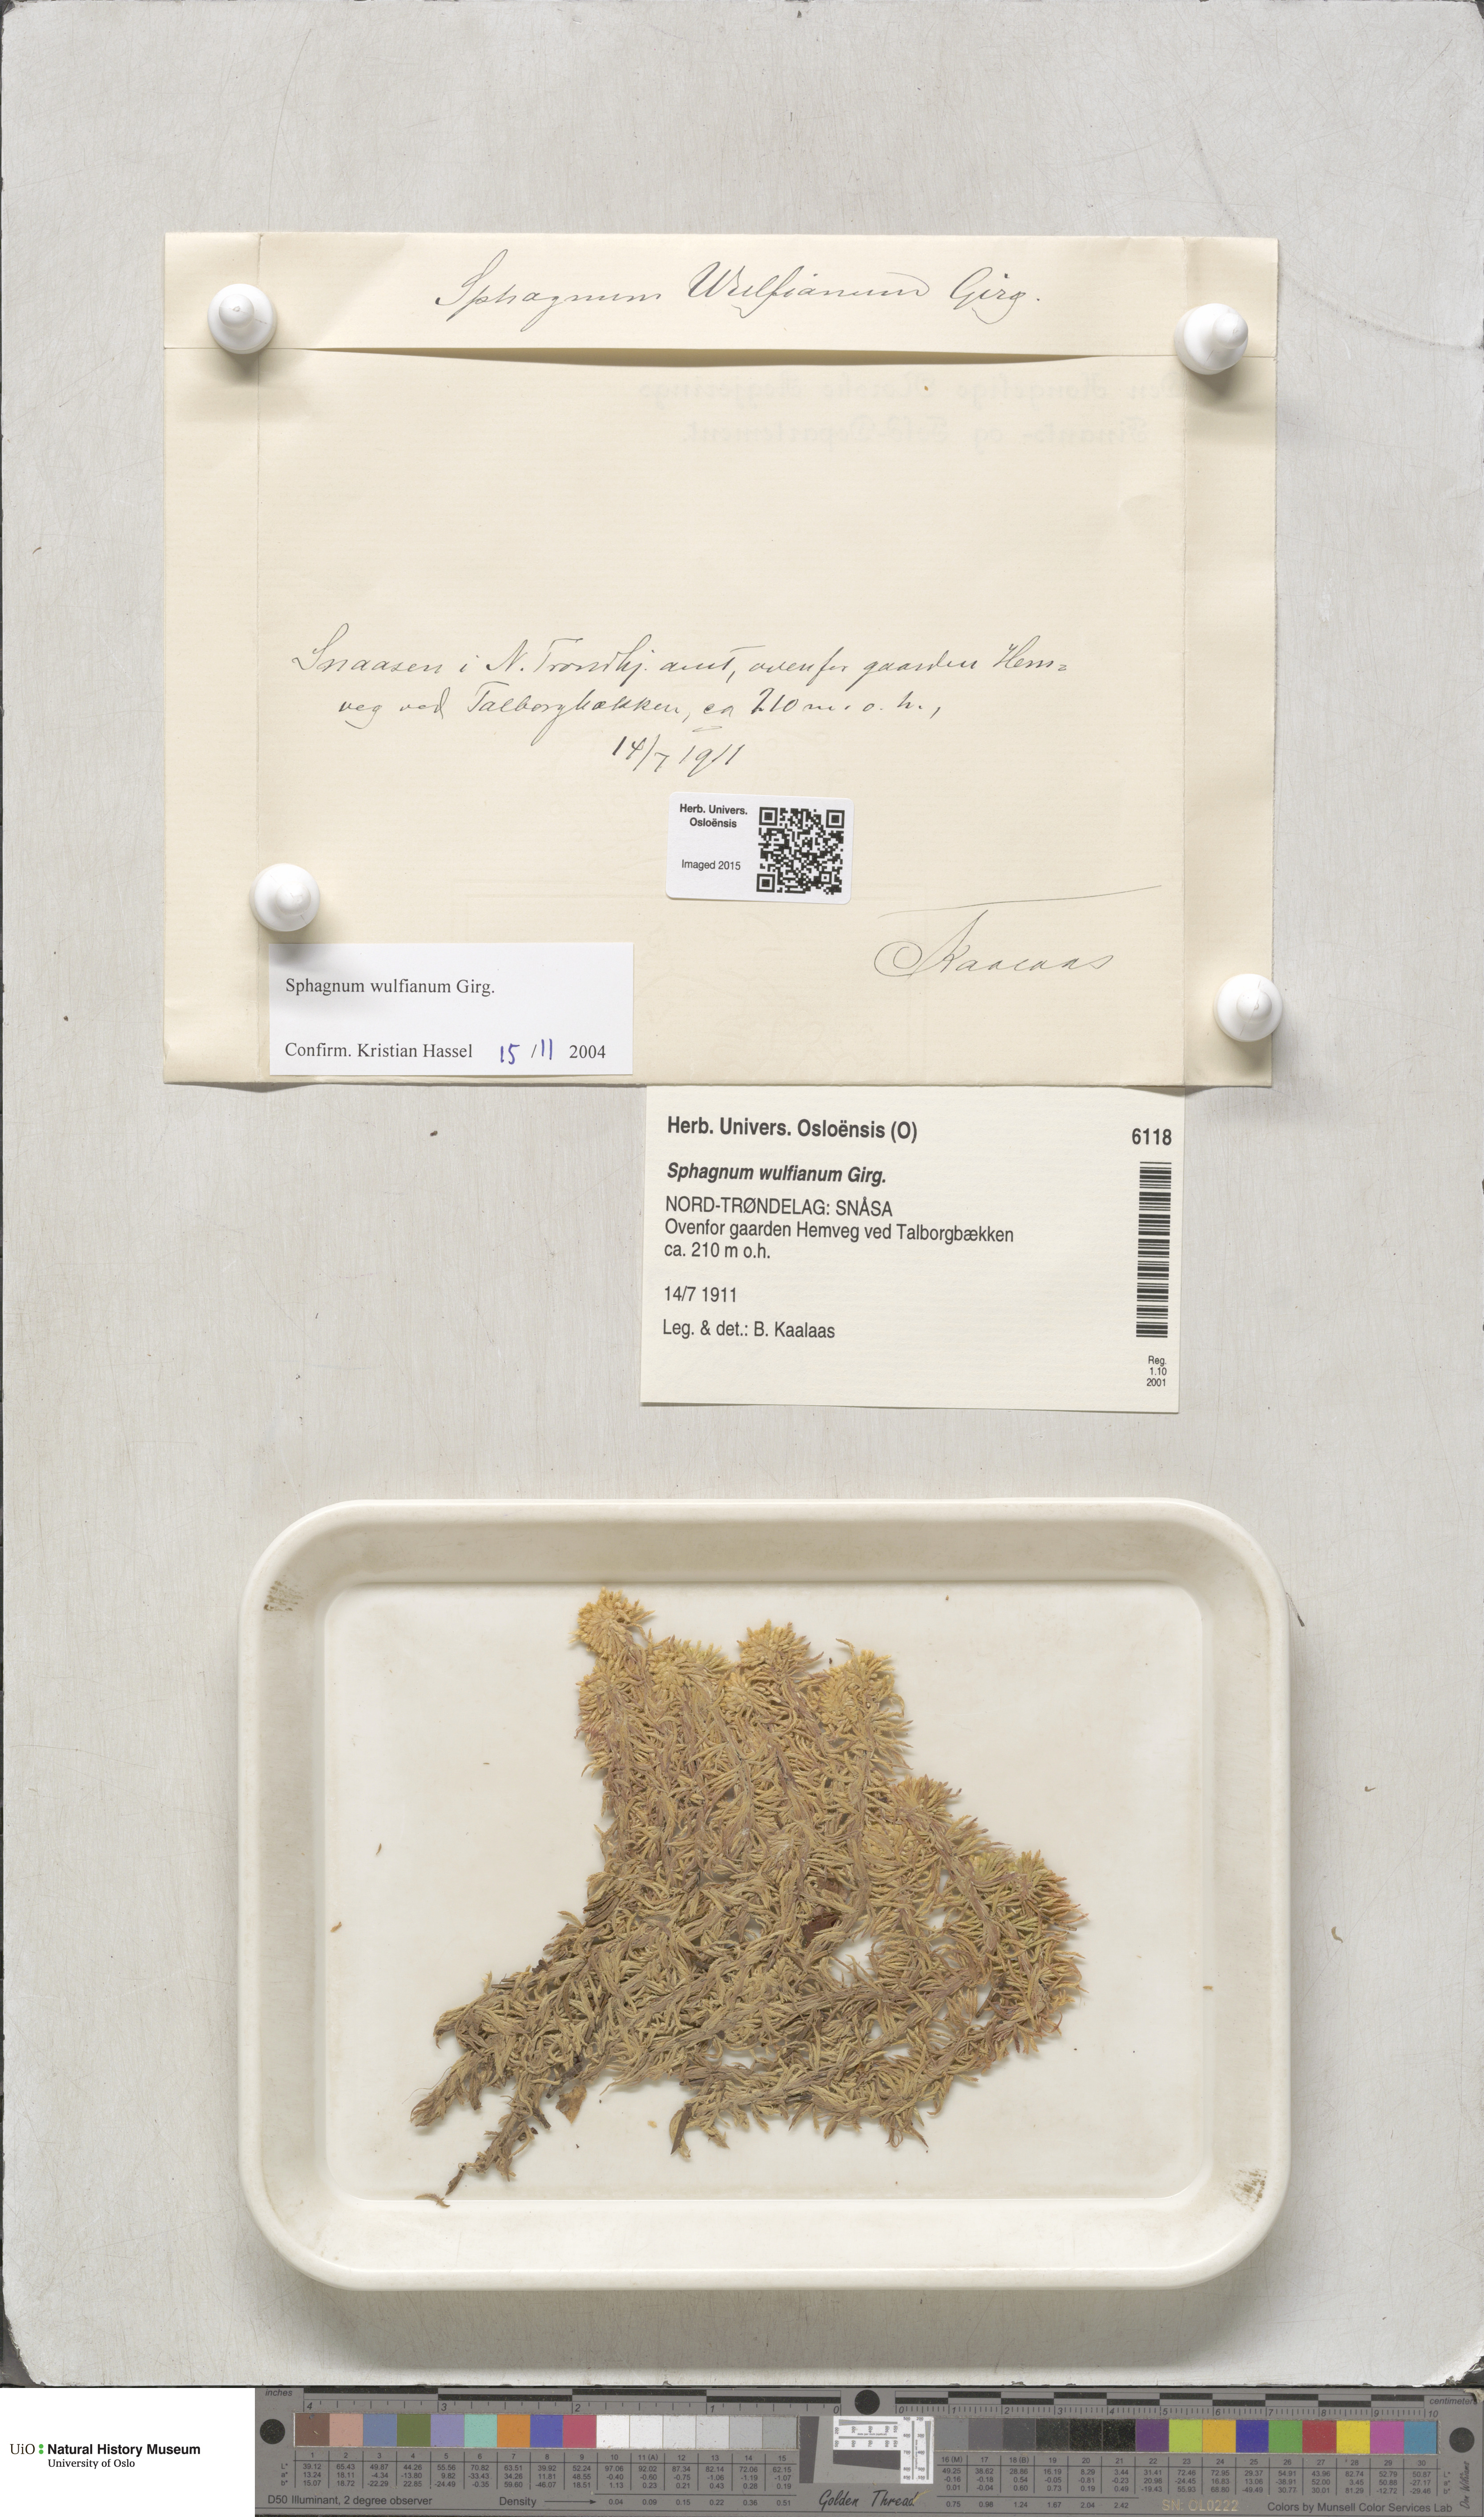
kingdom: Plantae
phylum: Bryophyta
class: Sphagnopsida
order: Sphagnales
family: Sphagnaceae
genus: Sphagnum
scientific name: Sphagnum wulfianum
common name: Wulf's peat moss
